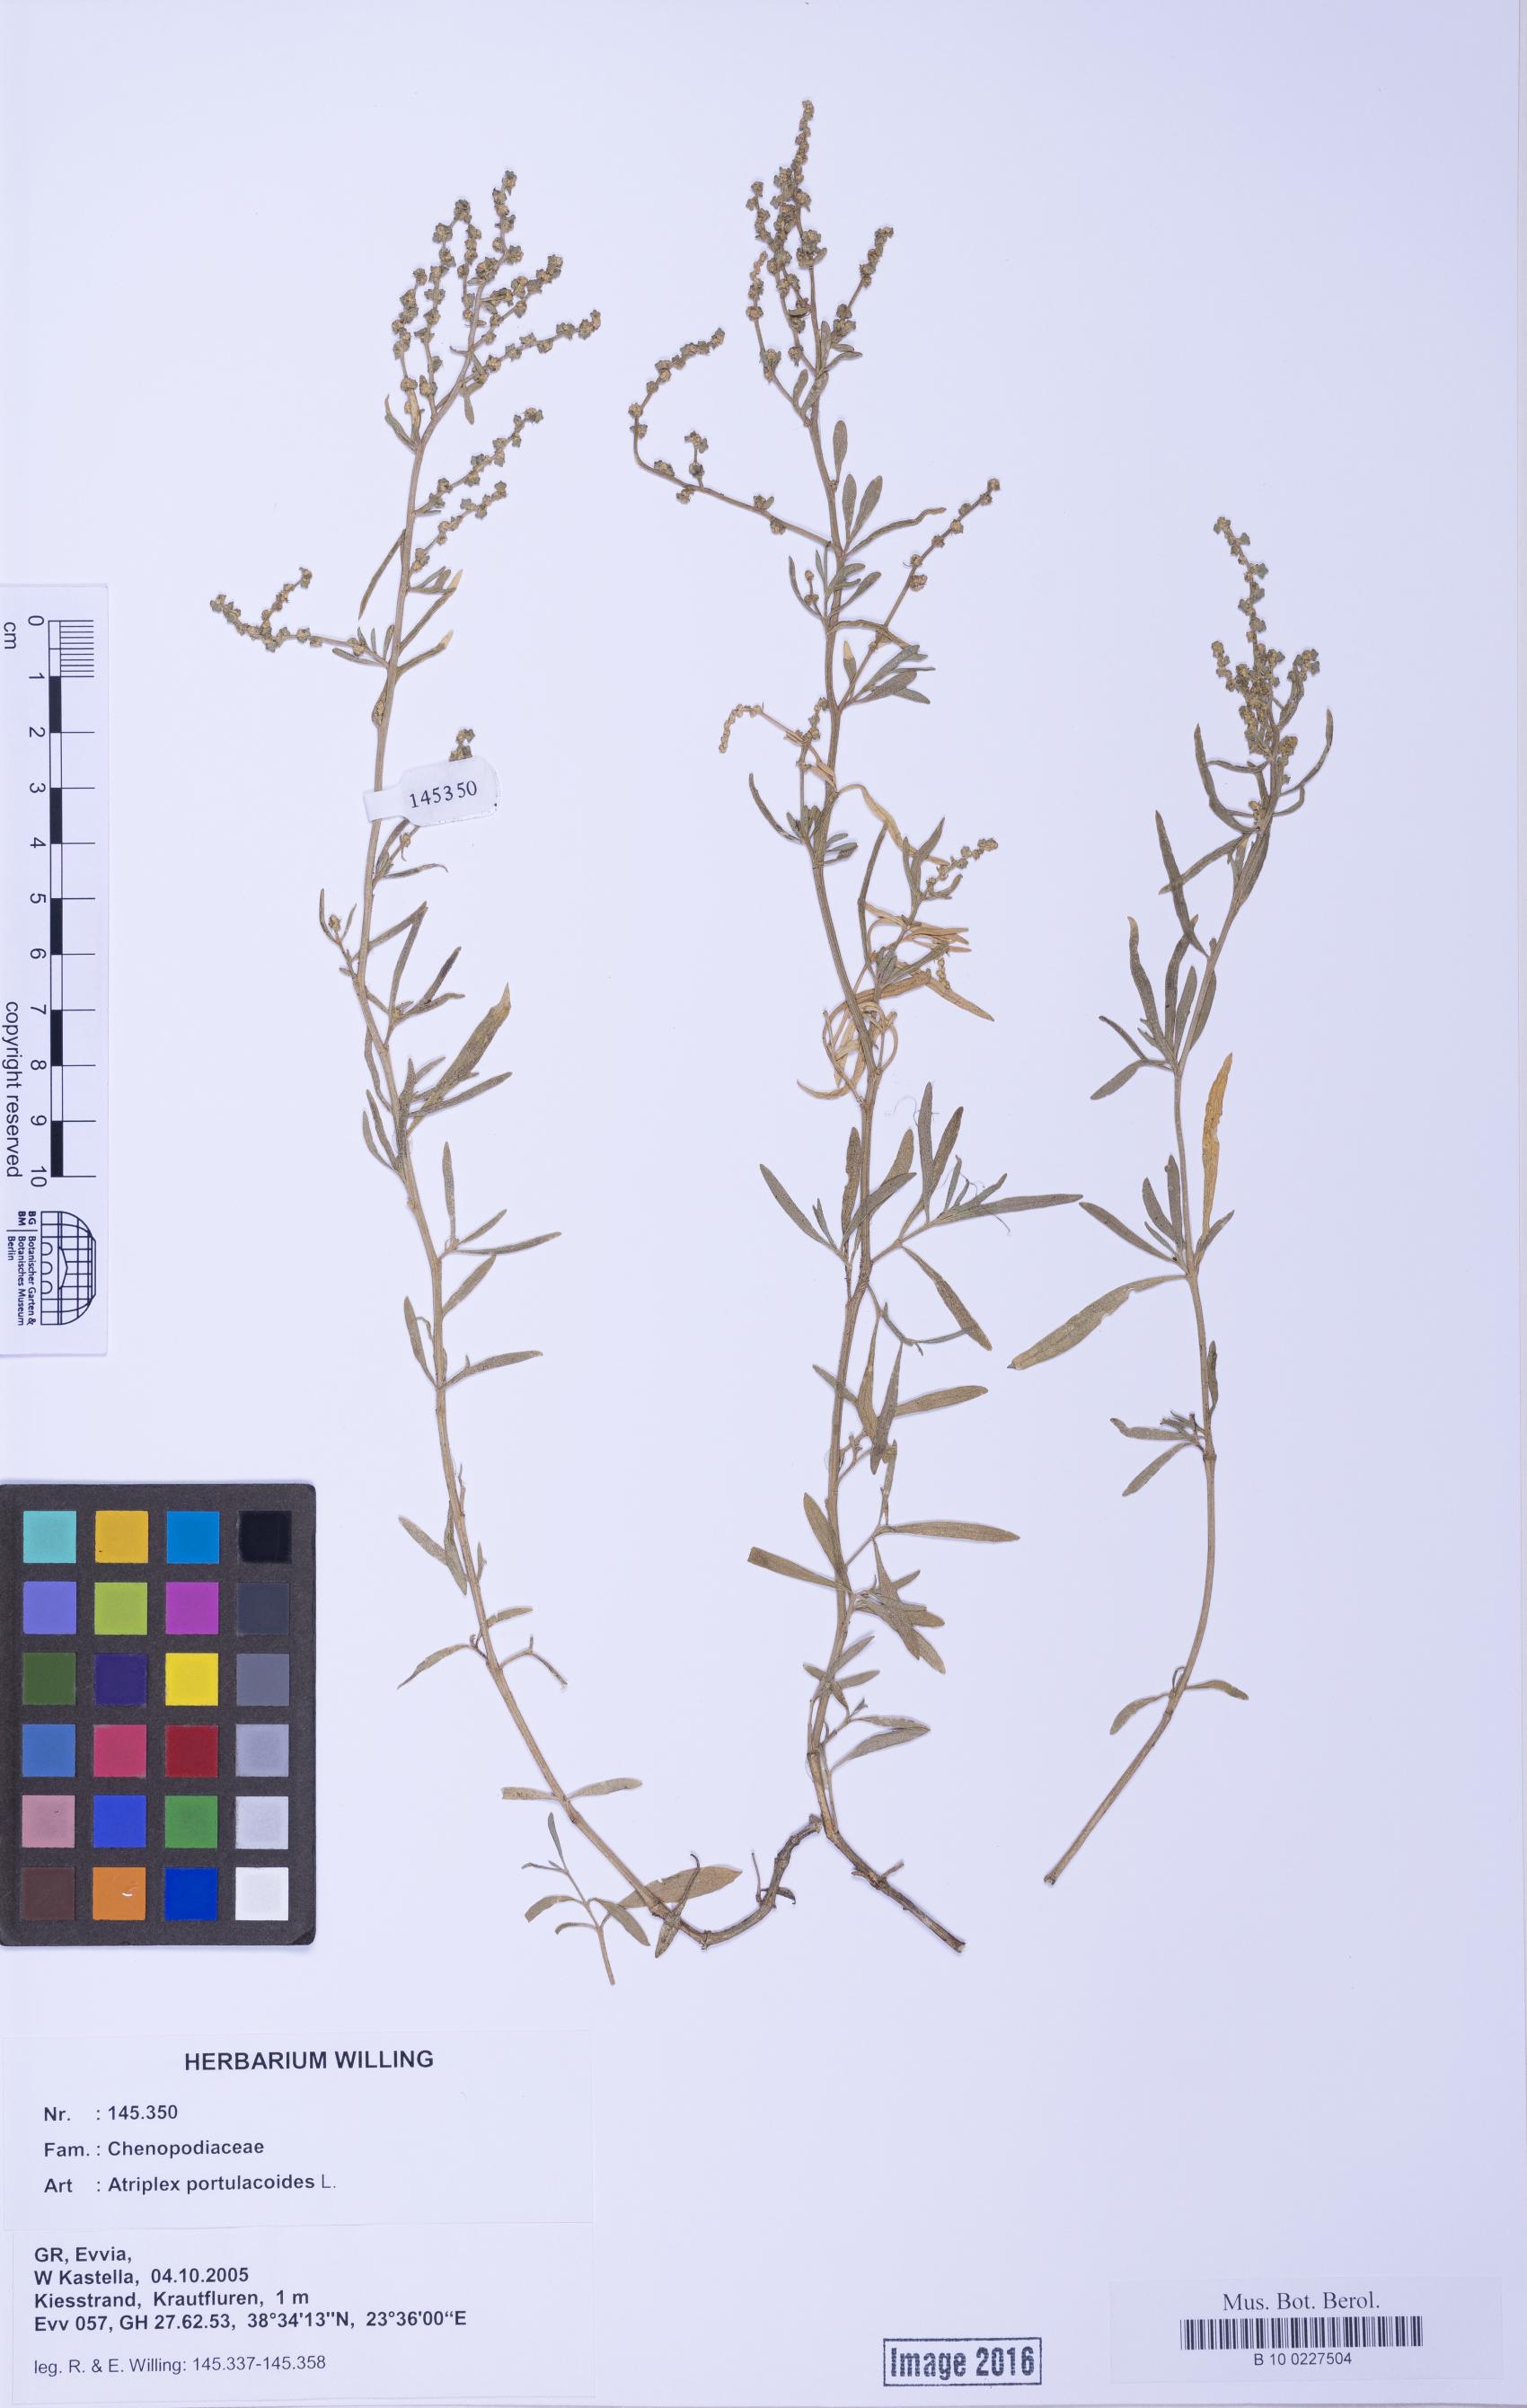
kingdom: Plantae
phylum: Tracheophyta
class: Magnoliopsida
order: Caryophyllales
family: Amaranthaceae
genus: Halimione
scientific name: Halimione portulacoides
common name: Sea-purslane
